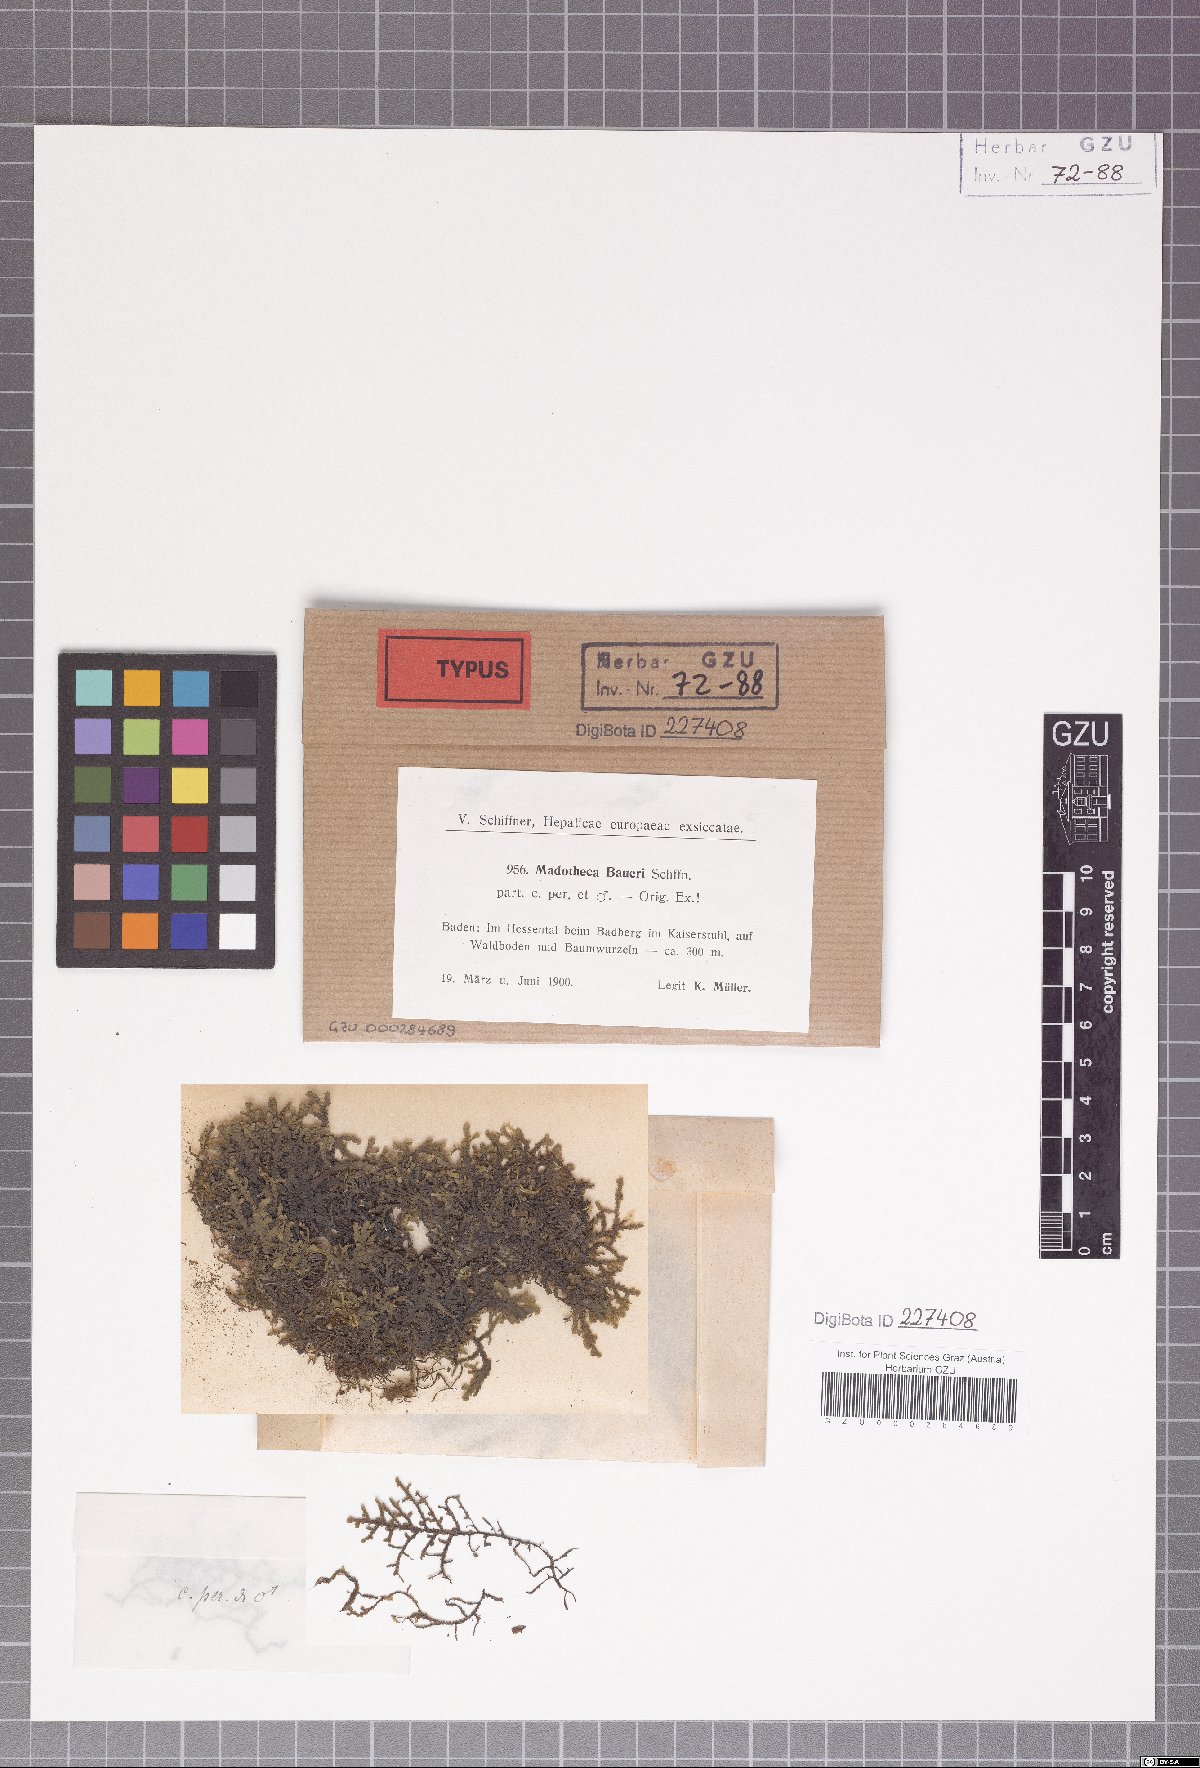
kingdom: Plantae
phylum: Marchantiophyta
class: Jungermanniopsida
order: Porellales
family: Porellaceae
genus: Porella
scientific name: Porella baueri
